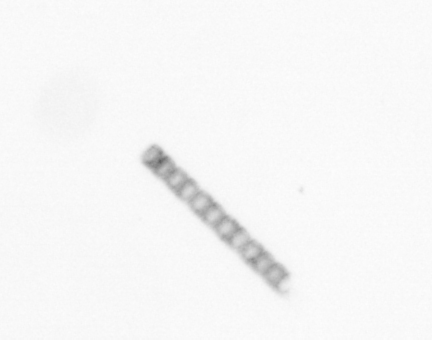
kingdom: Chromista
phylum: Ochrophyta
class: Bacillariophyceae
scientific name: Bacillariophyceae
